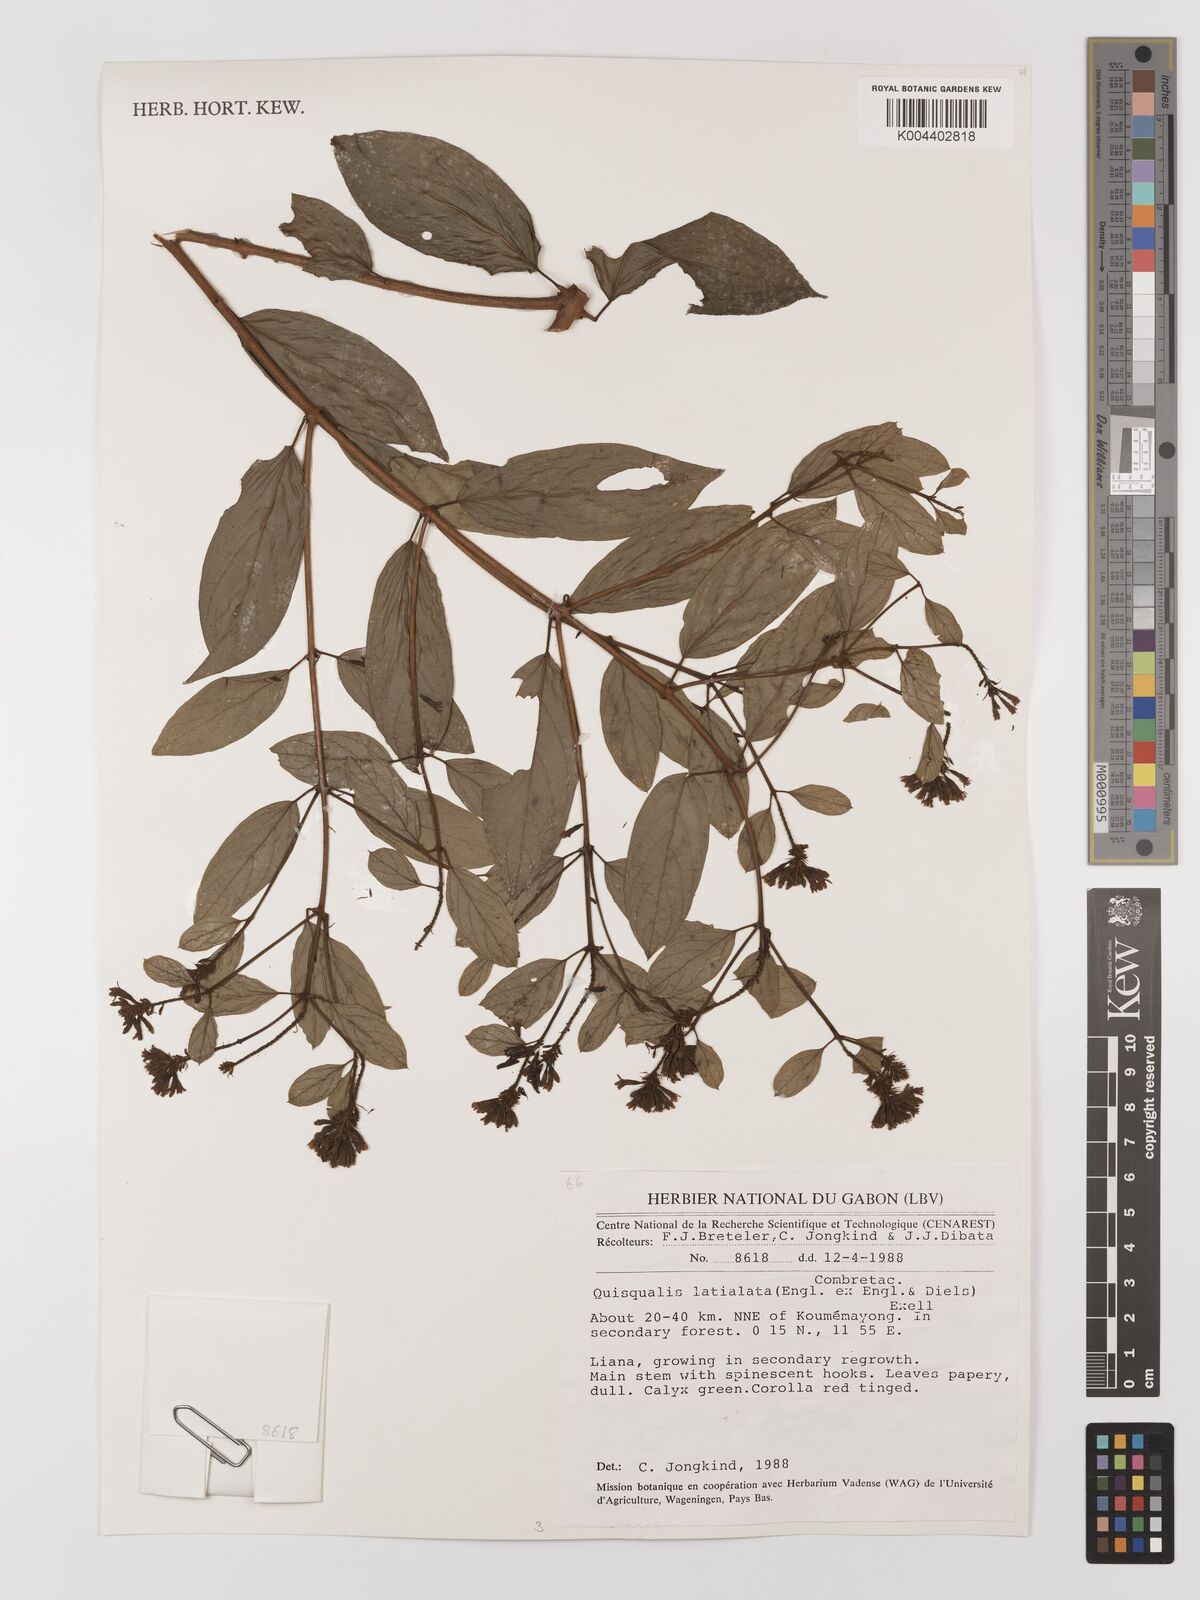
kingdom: Plantae
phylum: Tracheophyta
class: Magnoliopsida
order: Myrtales
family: Combretaceae
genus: Combretum
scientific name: Combretum latialatum
